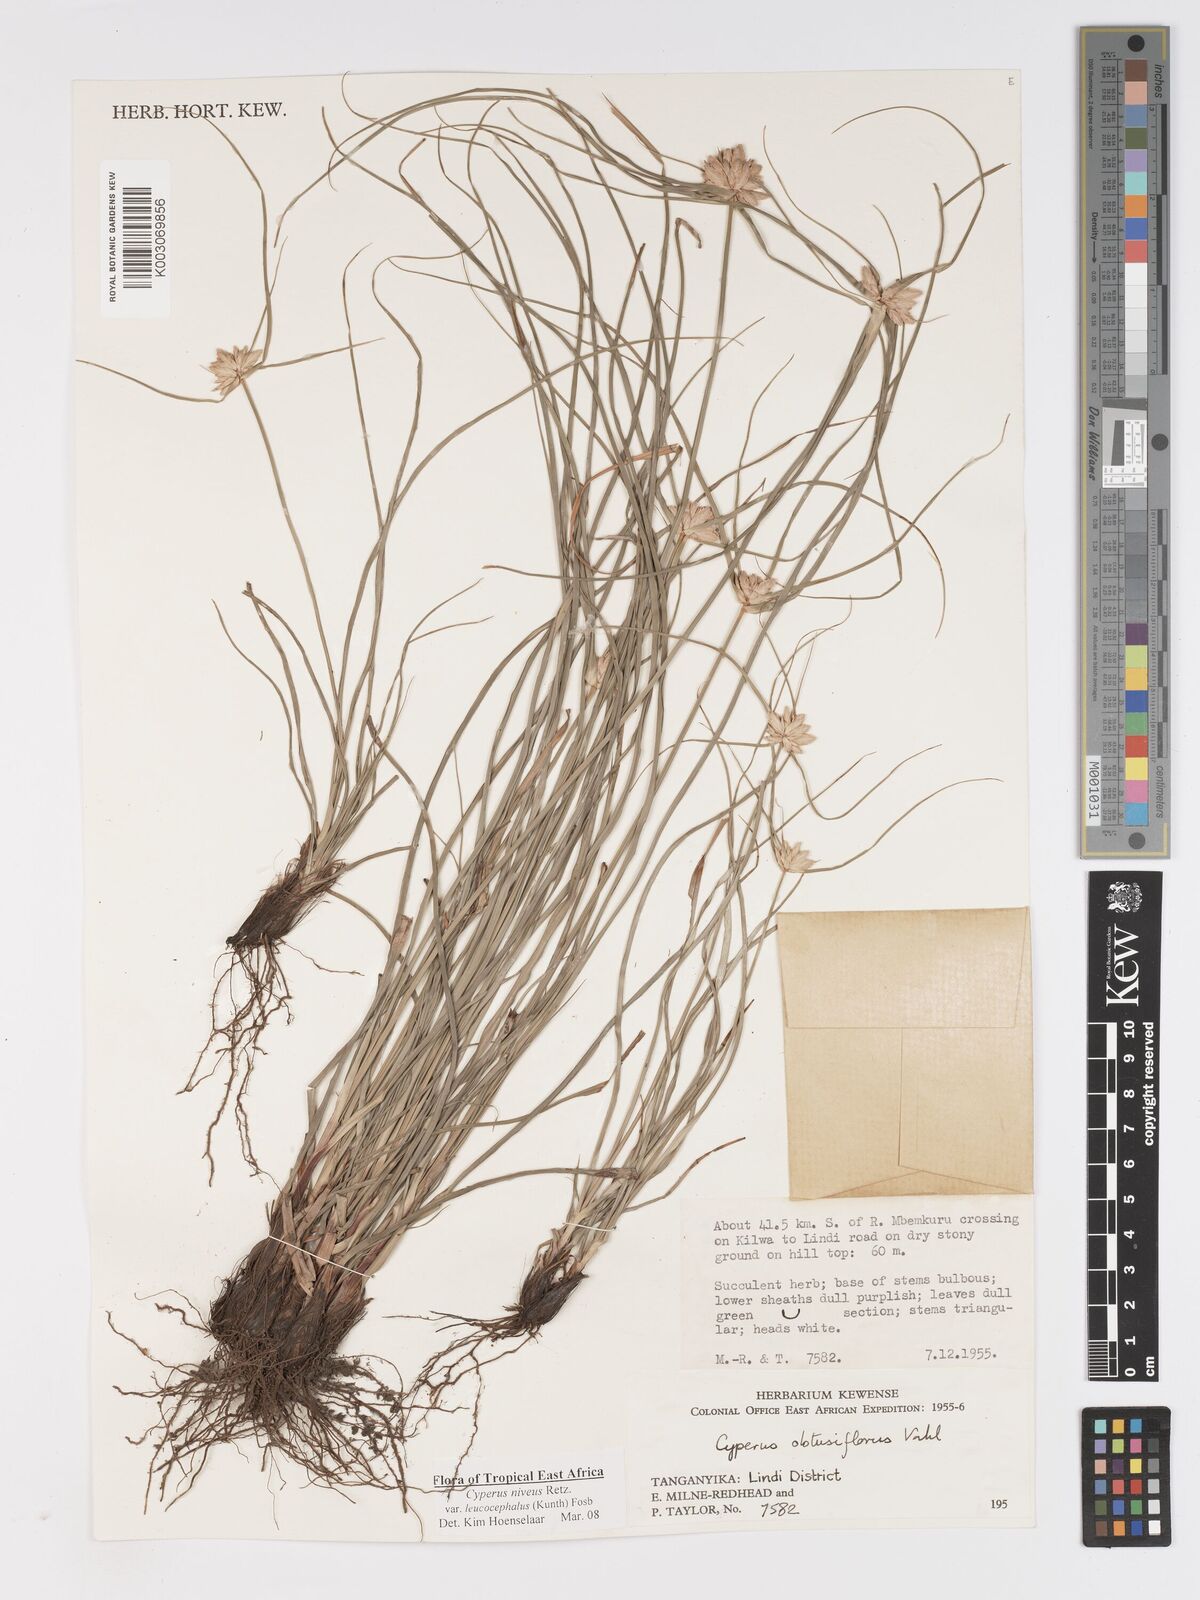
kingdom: Plantae
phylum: Tracheophyta
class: Liliopsida
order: Poales
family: Cyperaceae
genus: Cyperus
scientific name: Cyperus niveus
